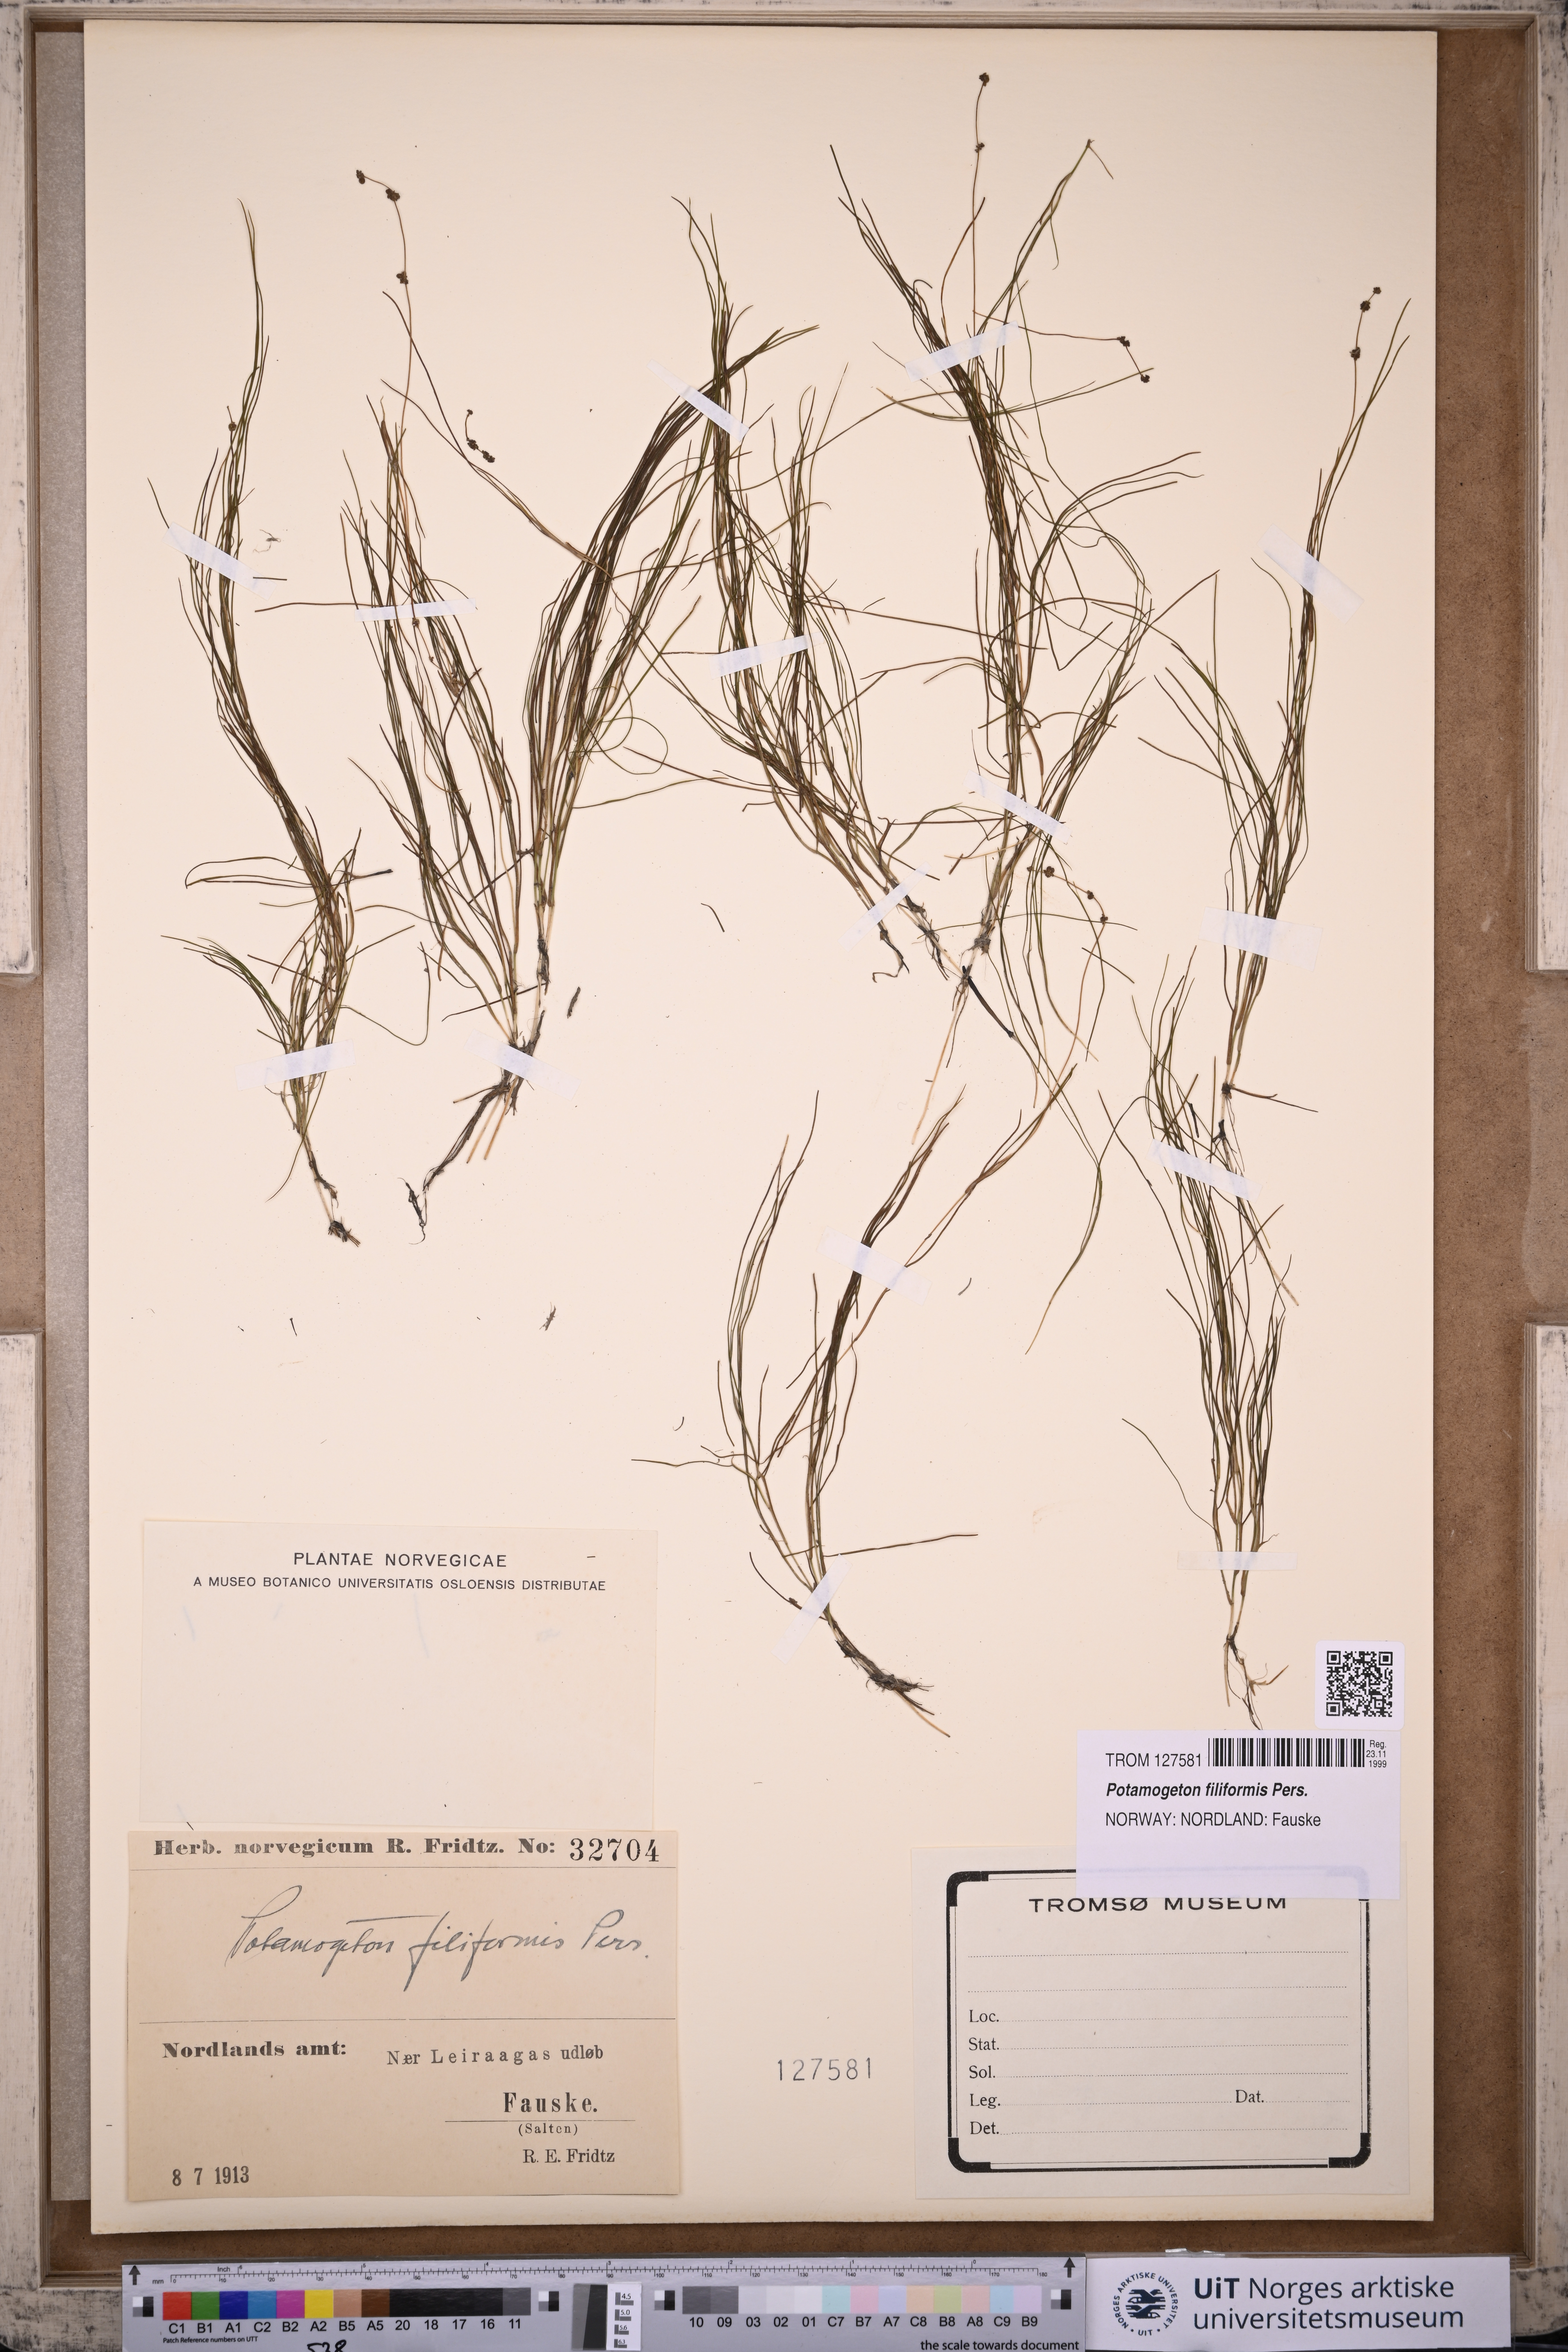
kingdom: Plantae
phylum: Tracheophyta
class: Liliopsida
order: Alismatales
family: Potamogetonaceae
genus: Stuckenia
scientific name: Stuckenia filiformis
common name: Alpine thread-leaved pondweed
